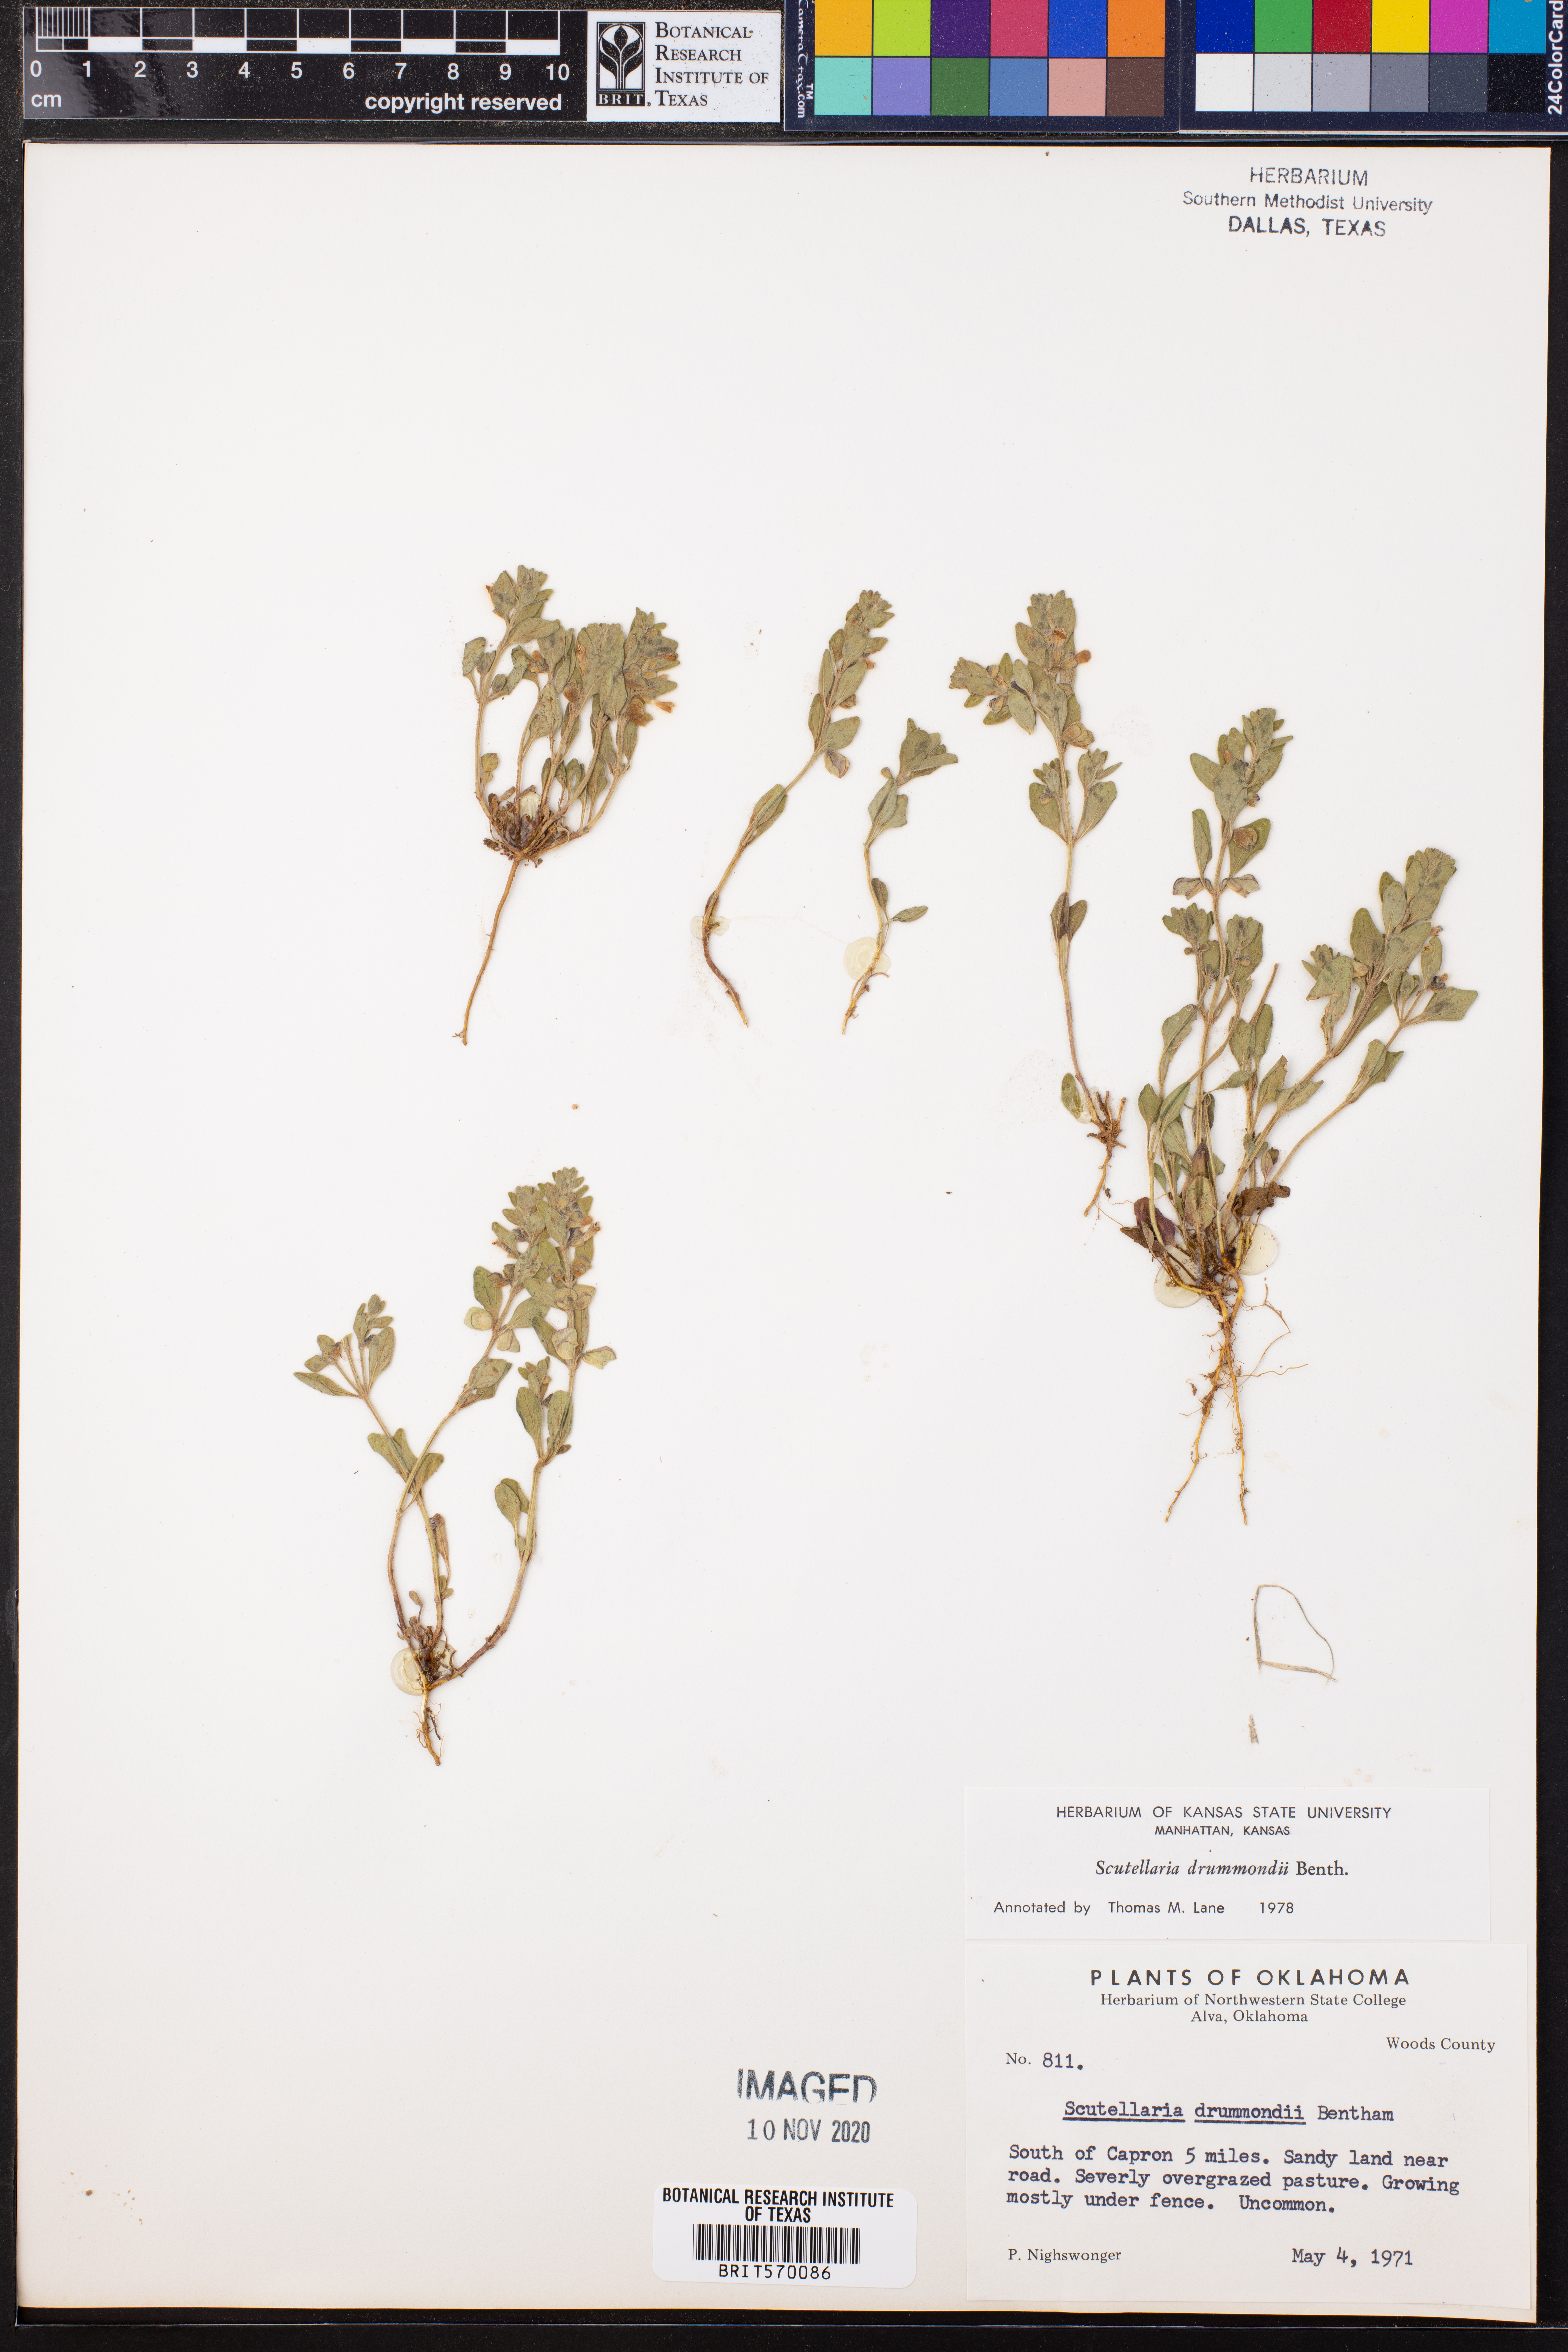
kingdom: Plantae
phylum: Tracheophyta
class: Magnoliopsida
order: Lamiales
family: Lamiaceae
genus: Scutellaria
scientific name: Scutellaria drummondii
